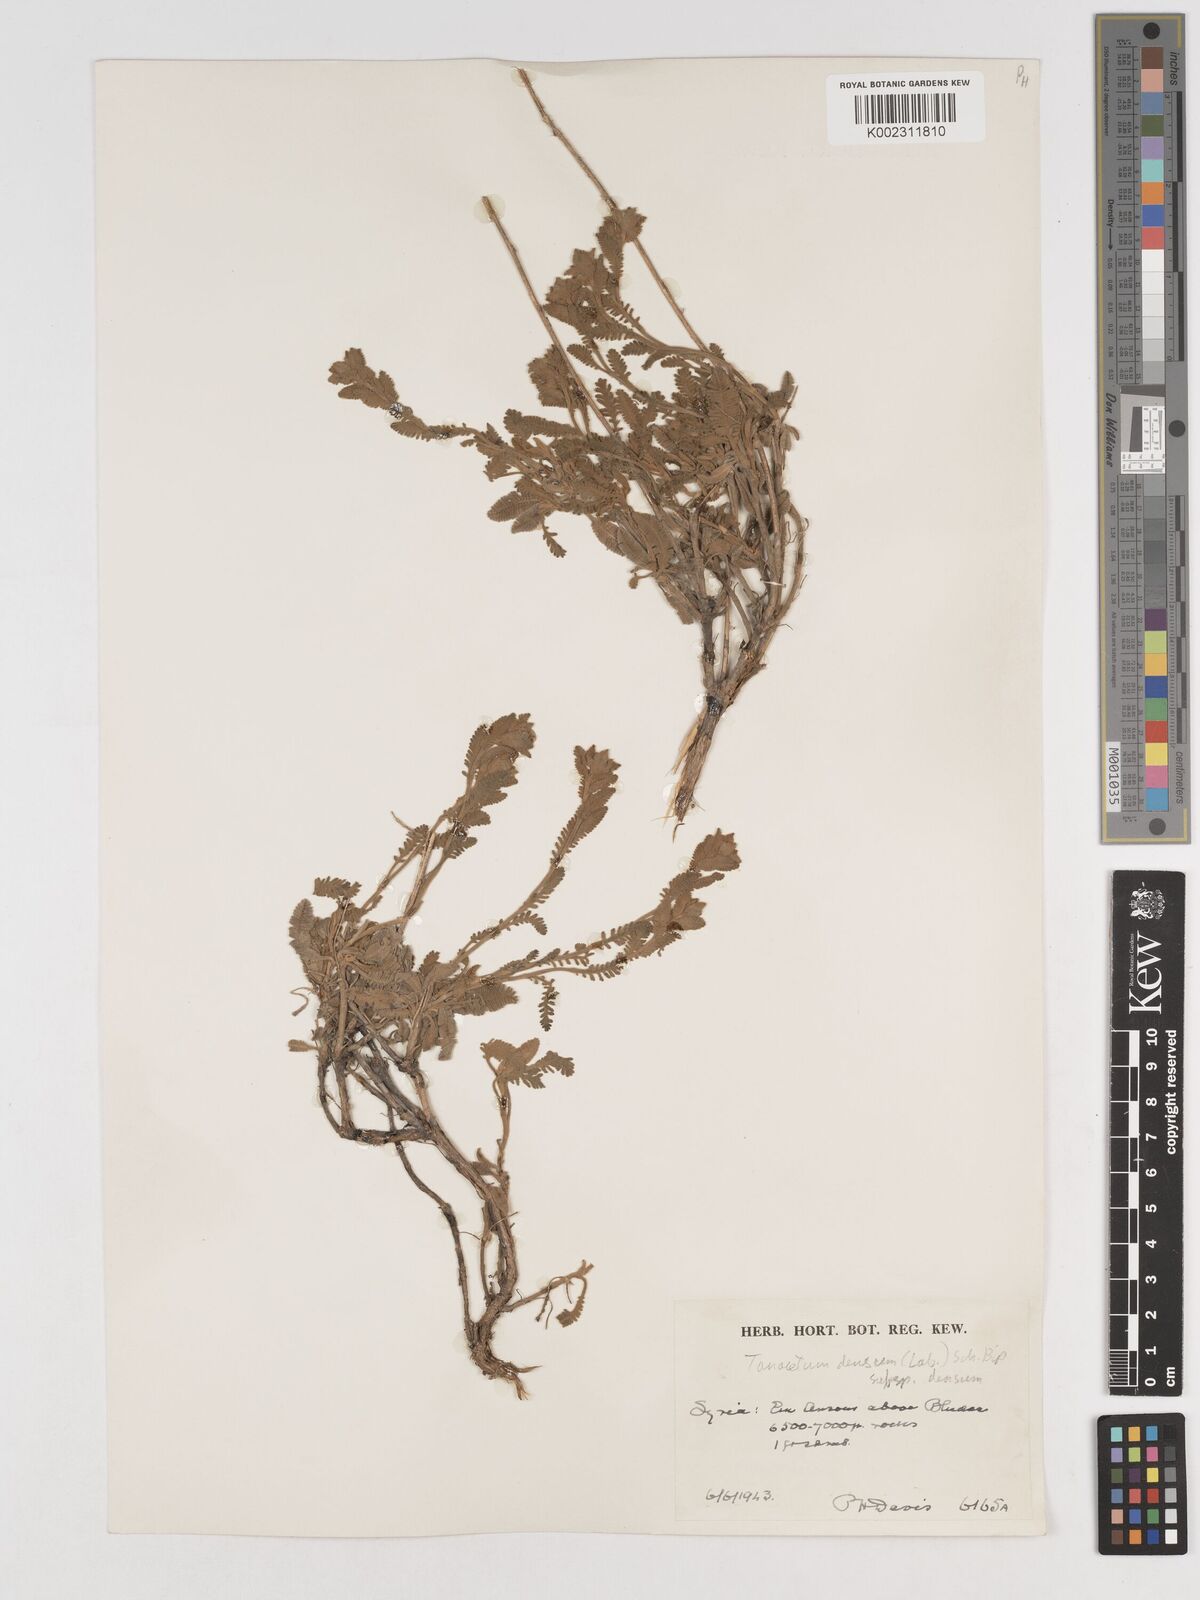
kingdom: Plantae
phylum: Tracheophyta
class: Magnoliopsida
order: Asterales
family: Asteraceae
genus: Tanacetum
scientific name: Tanacetum densum
